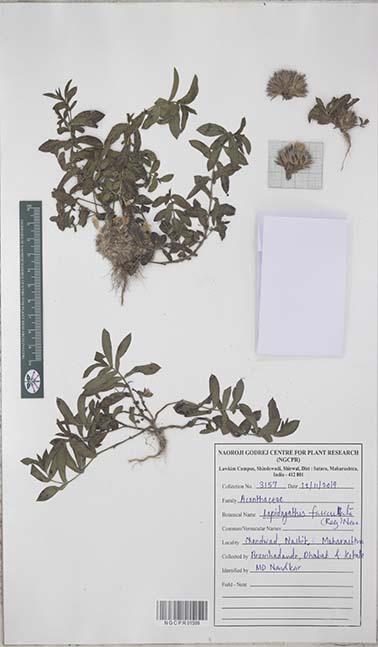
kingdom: Plantae
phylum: Tracheophyta
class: Magnoliopsida
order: Lamiales
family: Acanthaceae
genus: Lepidagathis
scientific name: Lepidagathis fasciculata
